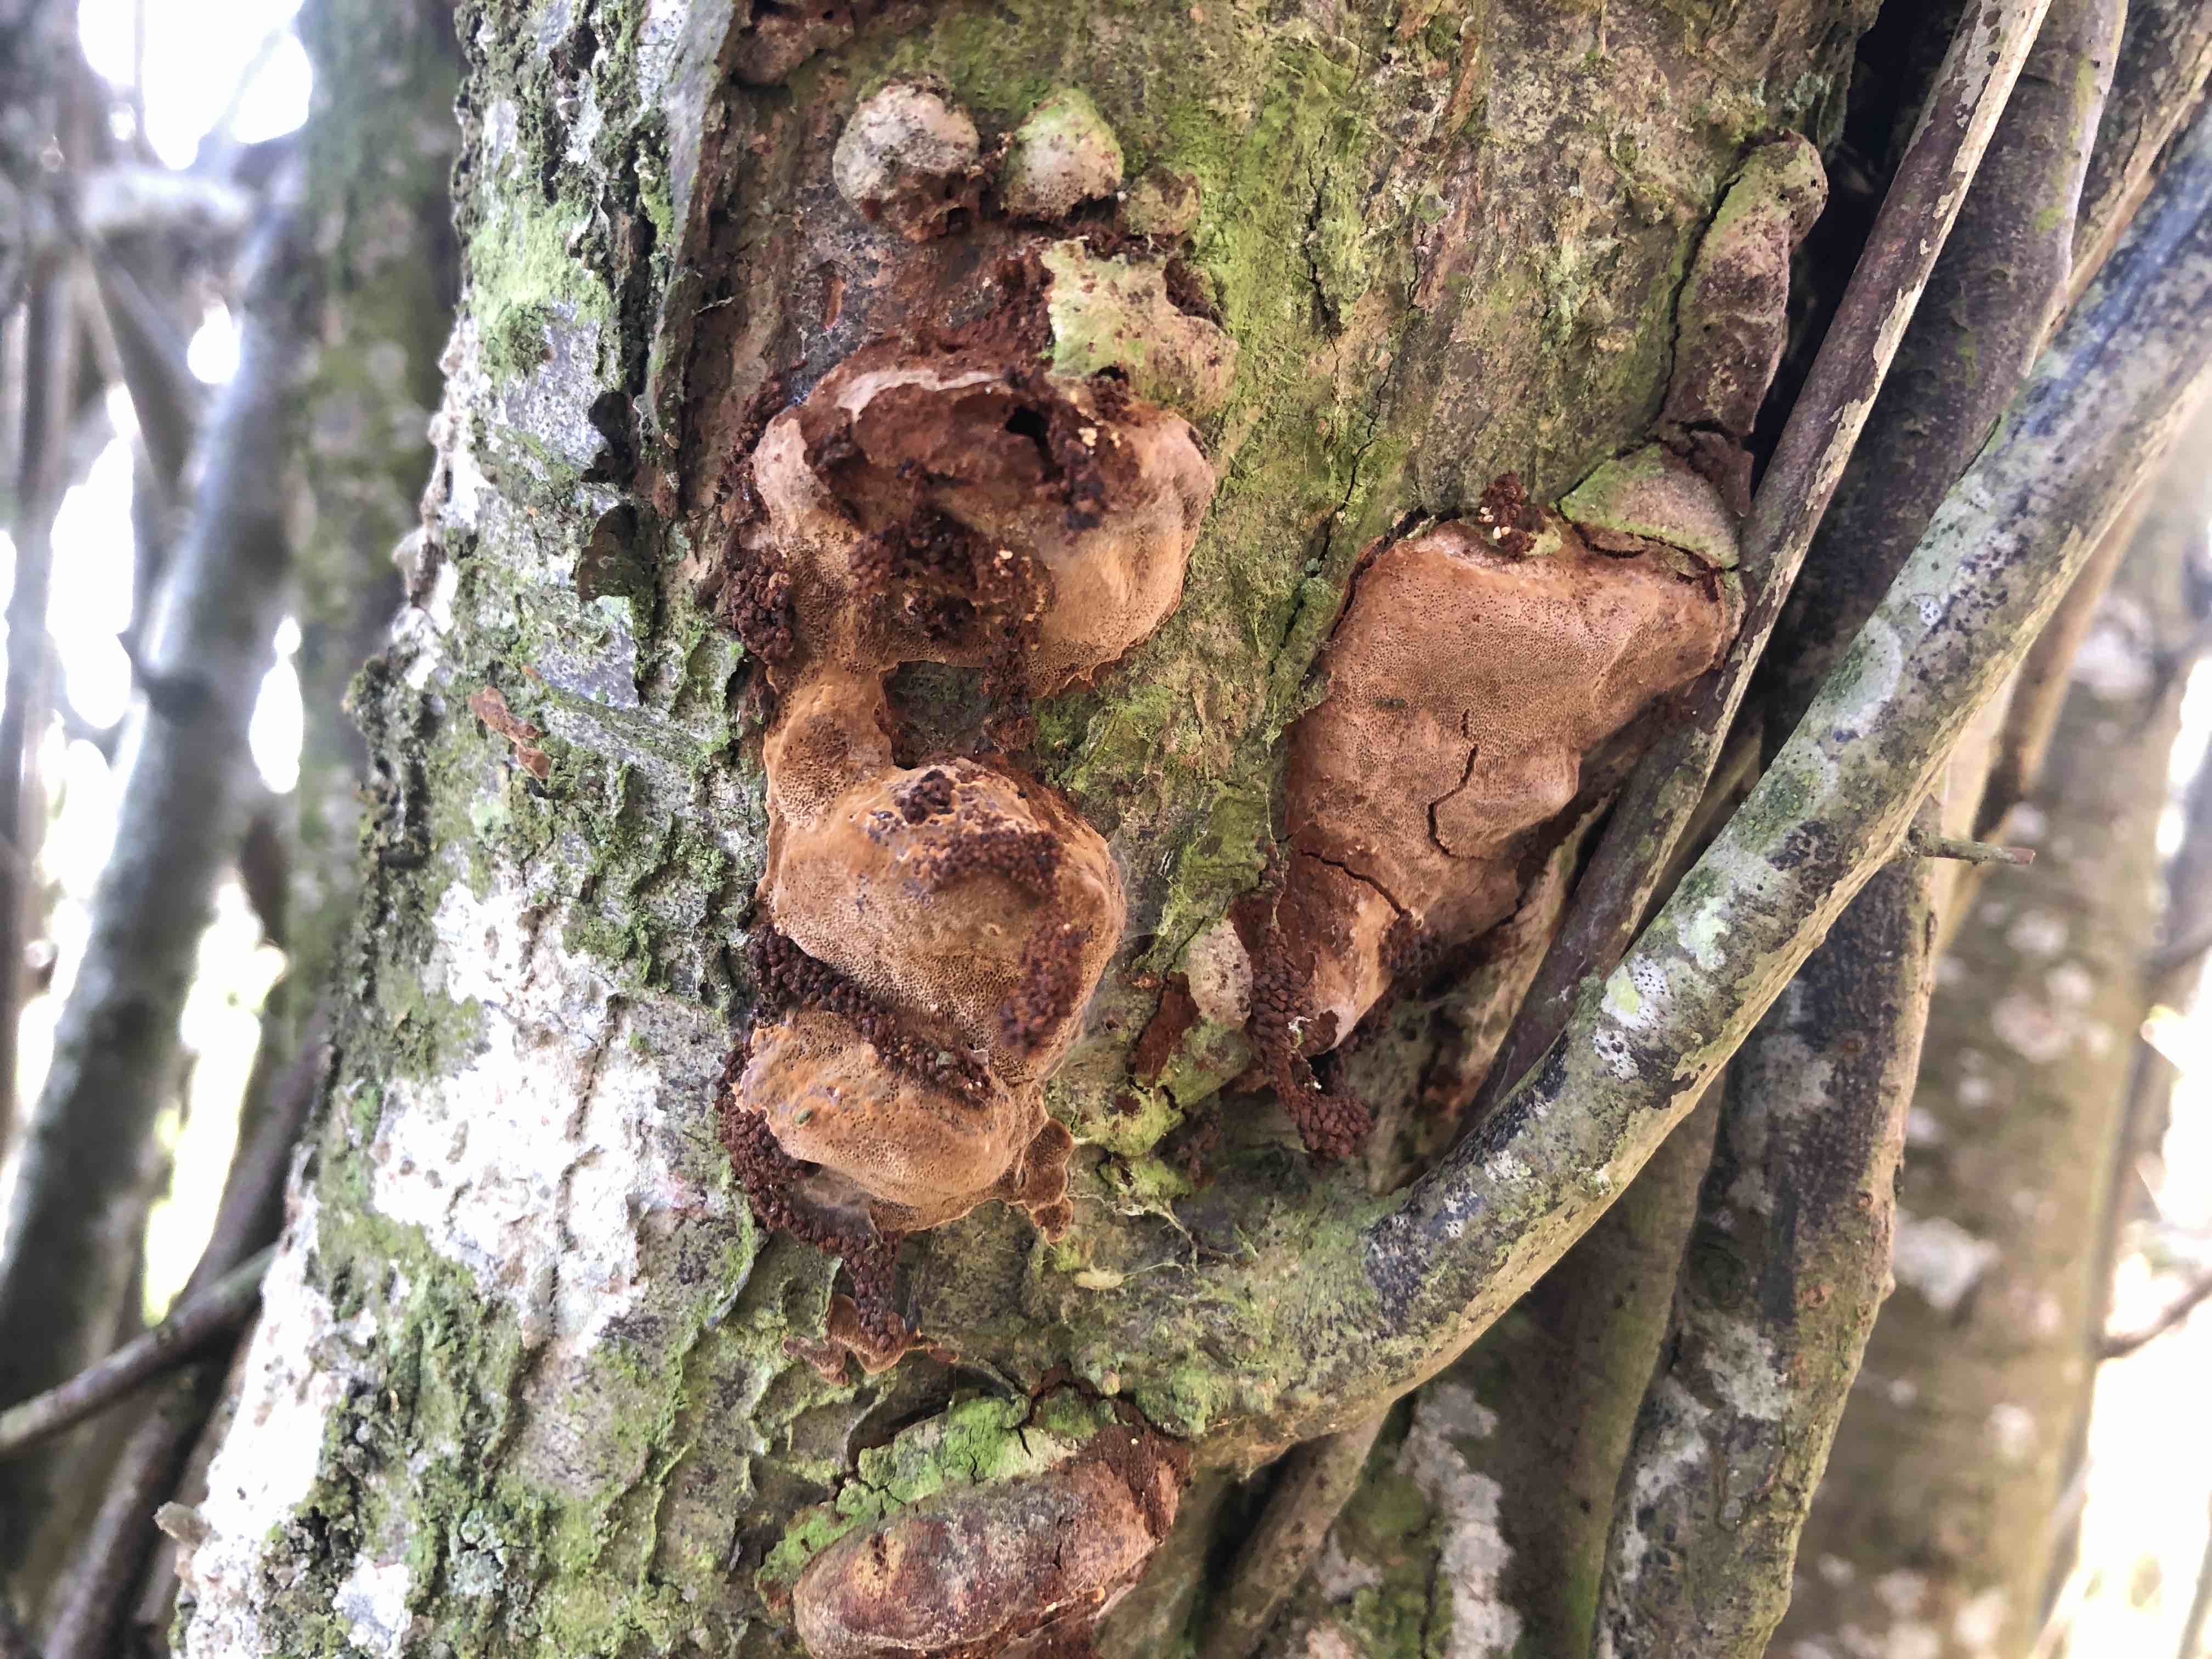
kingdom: Fungi
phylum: Basidiomycota
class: Agaricomycetes
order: Hymenochaetales
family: Hymenochaetaceae
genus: Phellinus
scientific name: Phellinus pomaceus
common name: blomme-ildporesvamp
